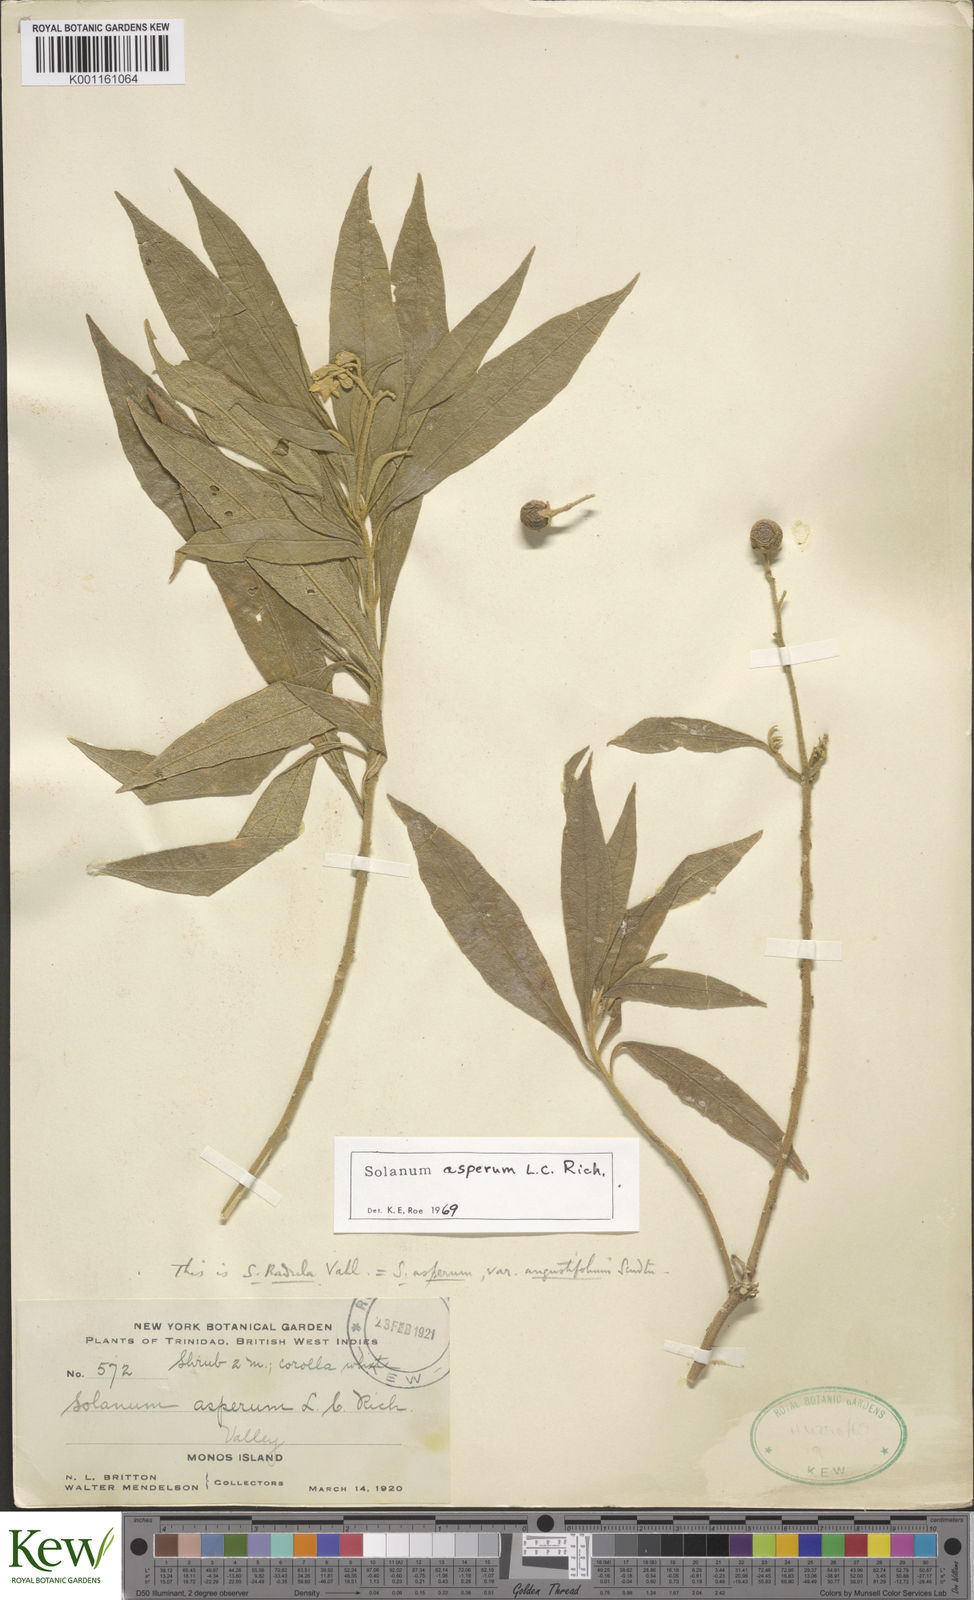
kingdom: Plantae
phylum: Tracheophyta
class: Magnoliopsida
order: Solanales
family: Solanaceae
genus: Solanum
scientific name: Solanum asperum
